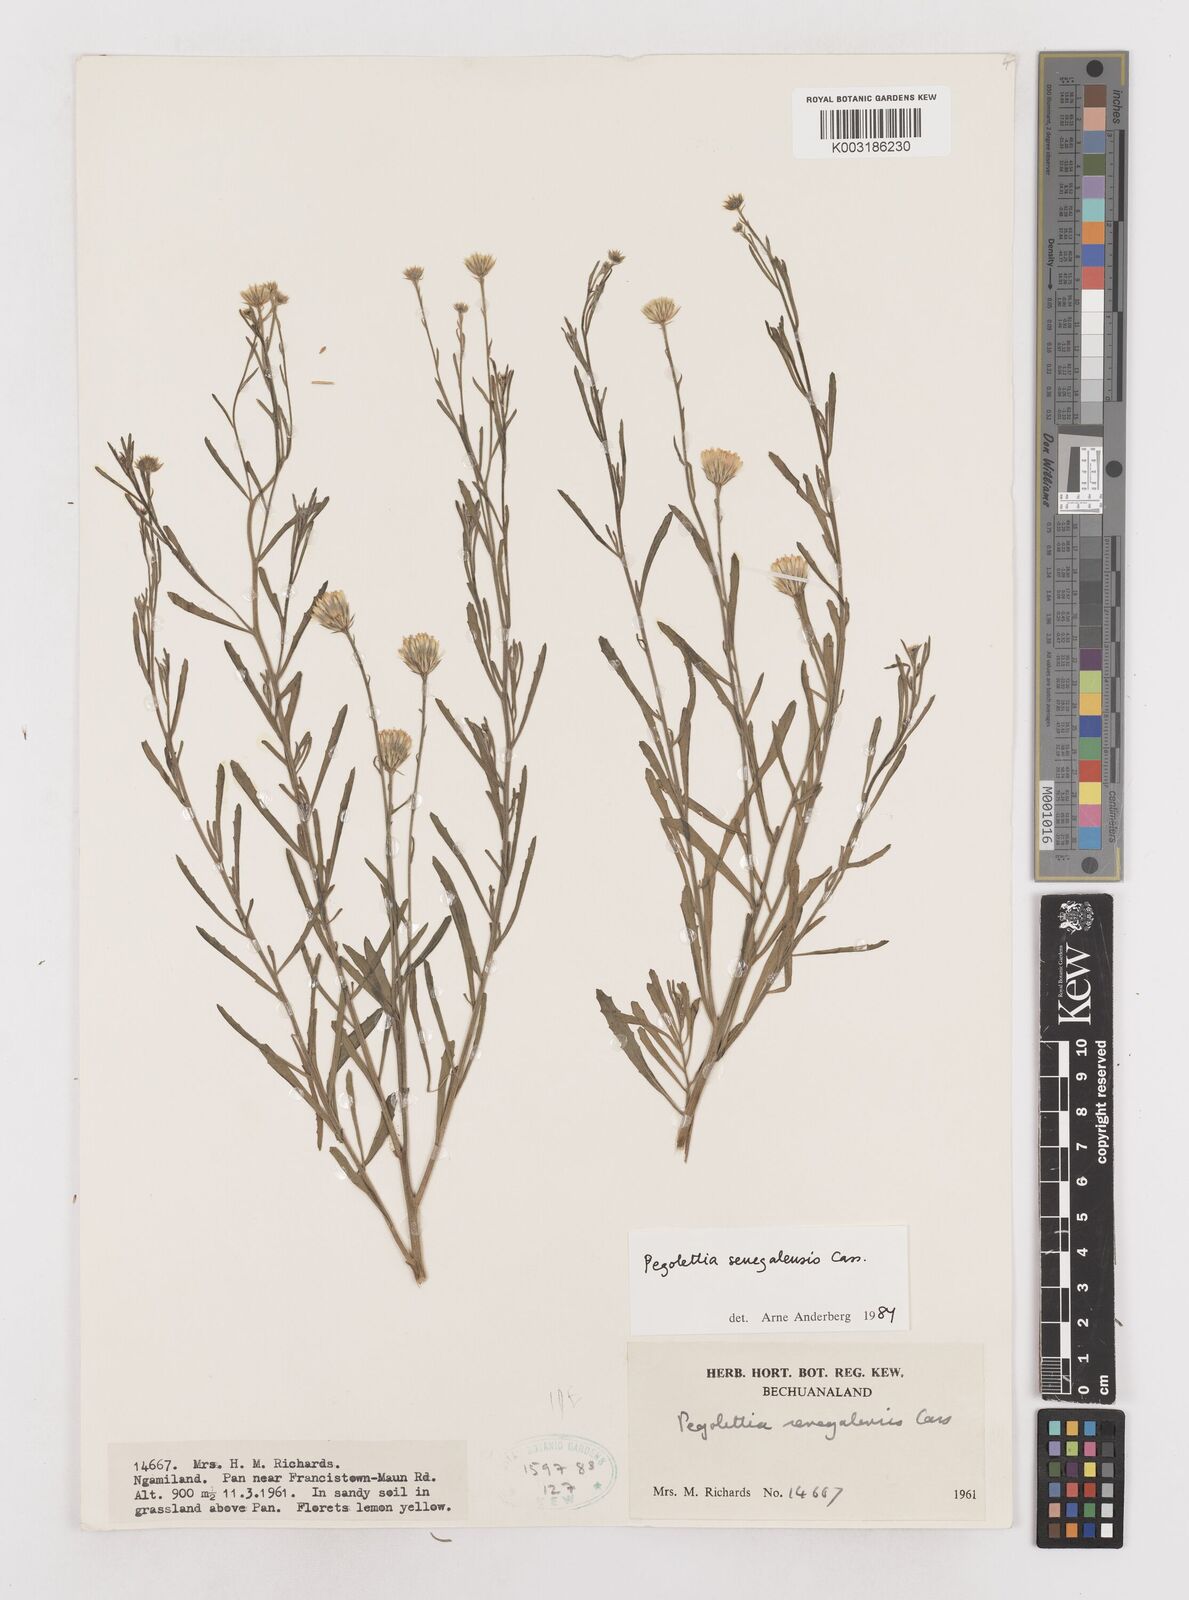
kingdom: Plantae
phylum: Tracheophyta
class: Magnoliopsida
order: Asterales
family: Asteraceae
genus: Pegolettia
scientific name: Pegolettia senegalensis
